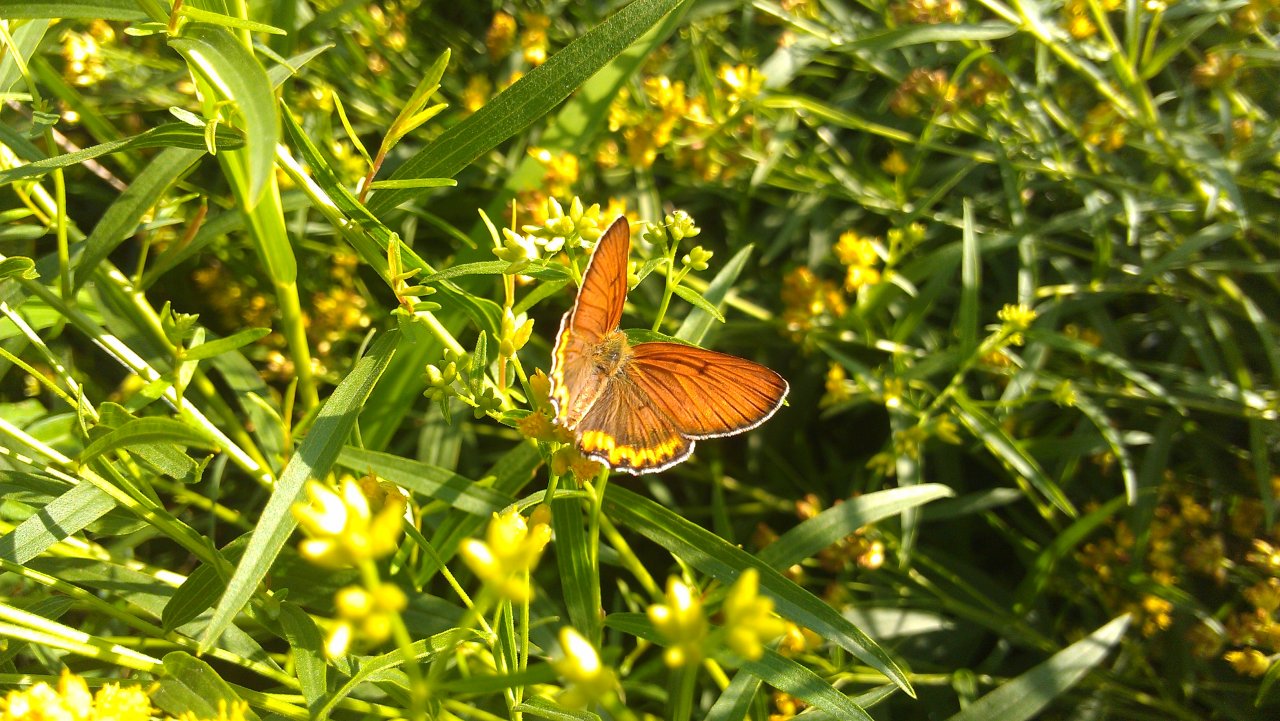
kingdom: Animalia
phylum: Arthropoda
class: Insecta
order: Lepidoptera
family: Sesiidae
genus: Sesia
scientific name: Sesia Lycaena hyllus
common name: Bronze Copper
